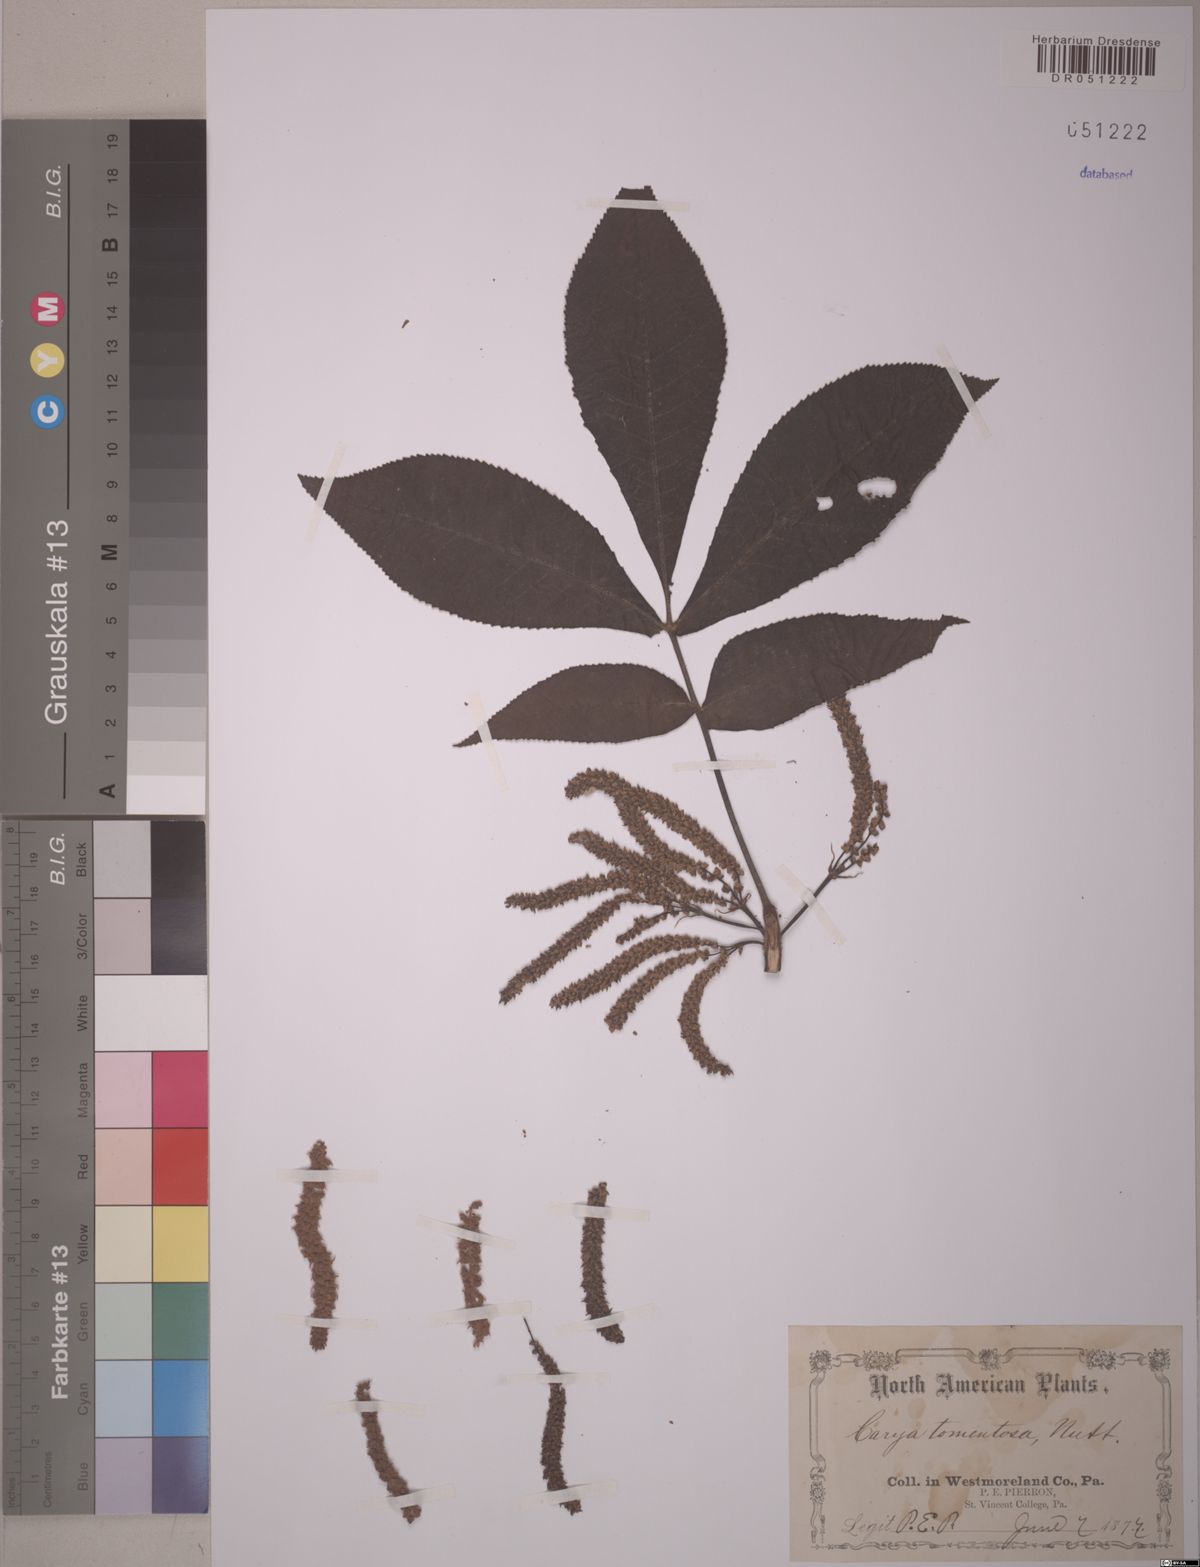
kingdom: Plantae
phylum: Tracheophyta
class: Magnoliopsida
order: Fagales
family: Juglandaceae
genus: Carya
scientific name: Carya alba
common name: Mockernut hickory
